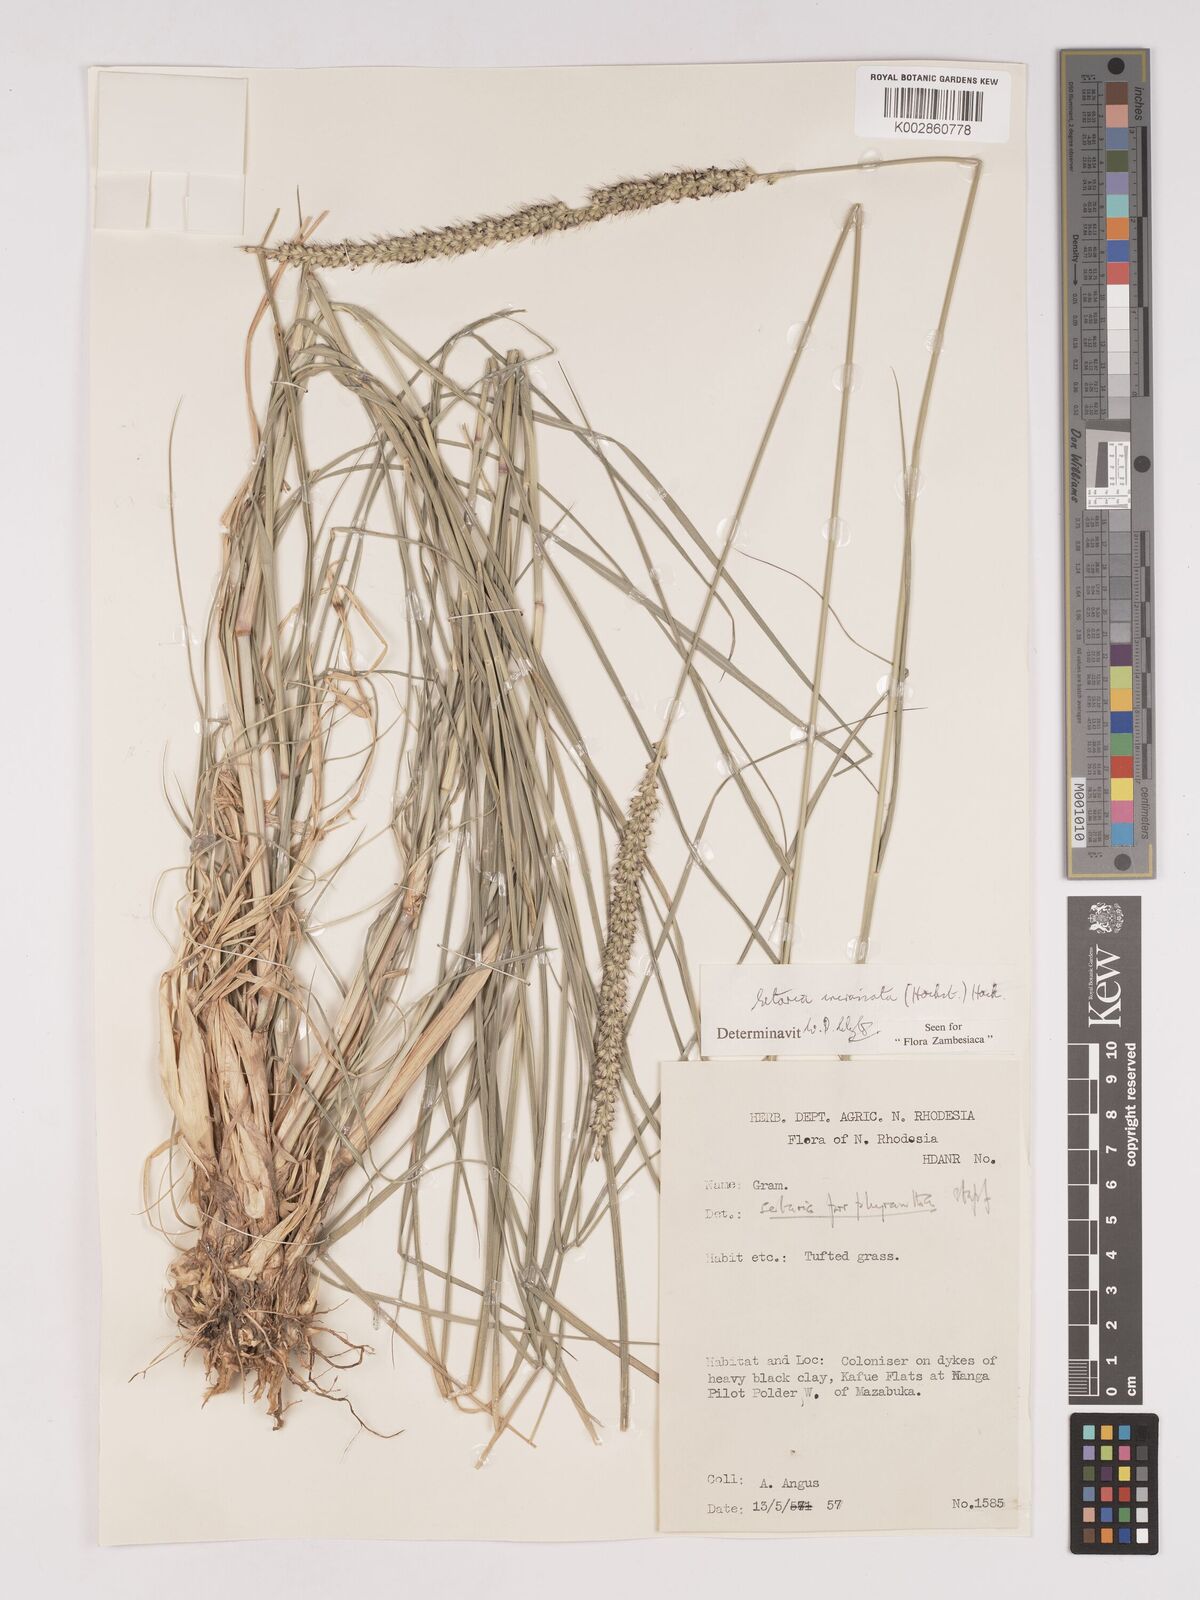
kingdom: Plantae
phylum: Tracheophyta
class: Liliopsida
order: Poales
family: Poaceae
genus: Setaria
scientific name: Setaria incrassata
